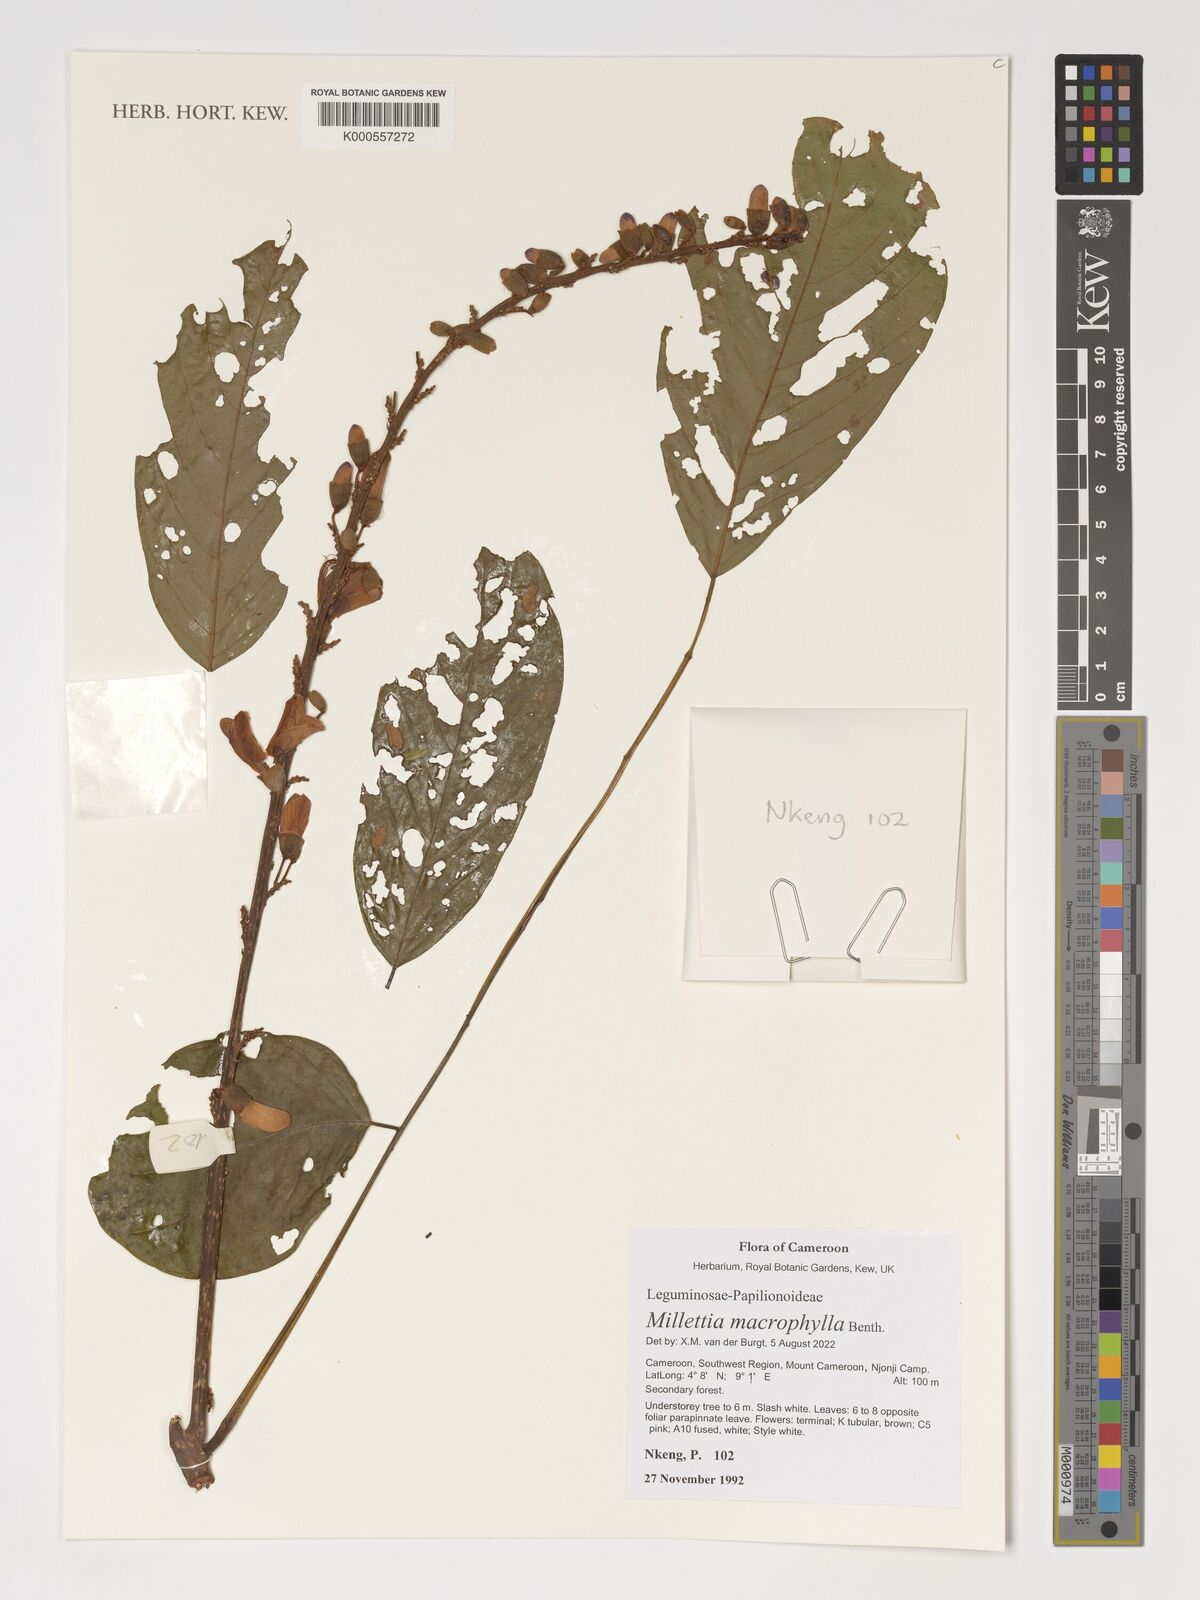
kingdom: Plantae
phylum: Tracheophyta
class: Magnoliopsida
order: Fabales
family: Fabaceae
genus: Millettia
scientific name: Millettia macrophylla
